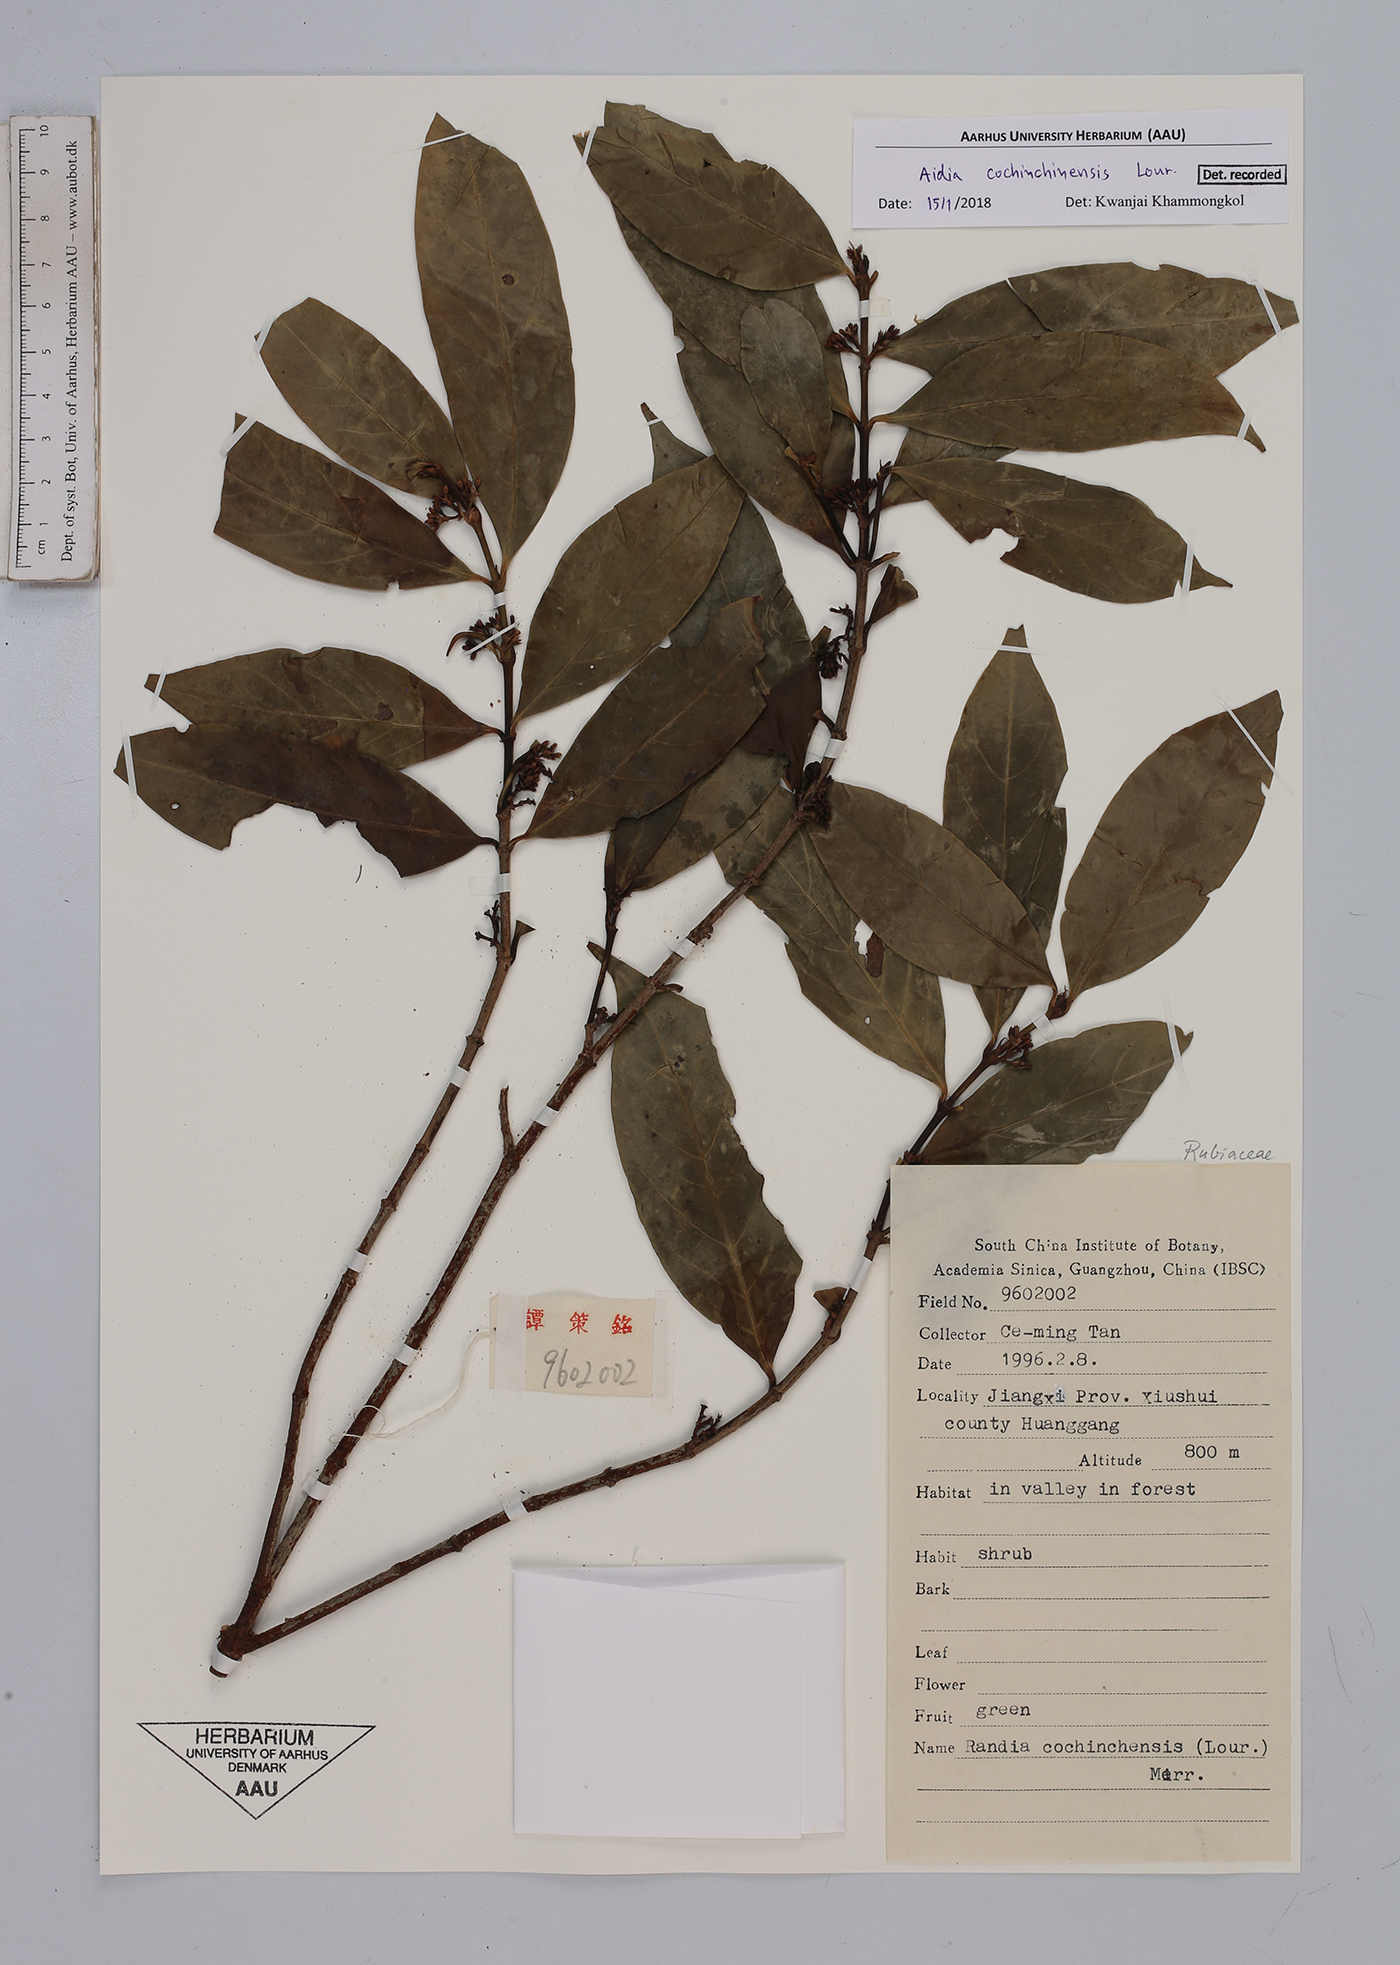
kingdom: Plantae
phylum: Tracheophyta
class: Magnoliopsida
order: Gentianales
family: Rubiaceae
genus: Aidia
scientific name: Aidia cochinchinensis
